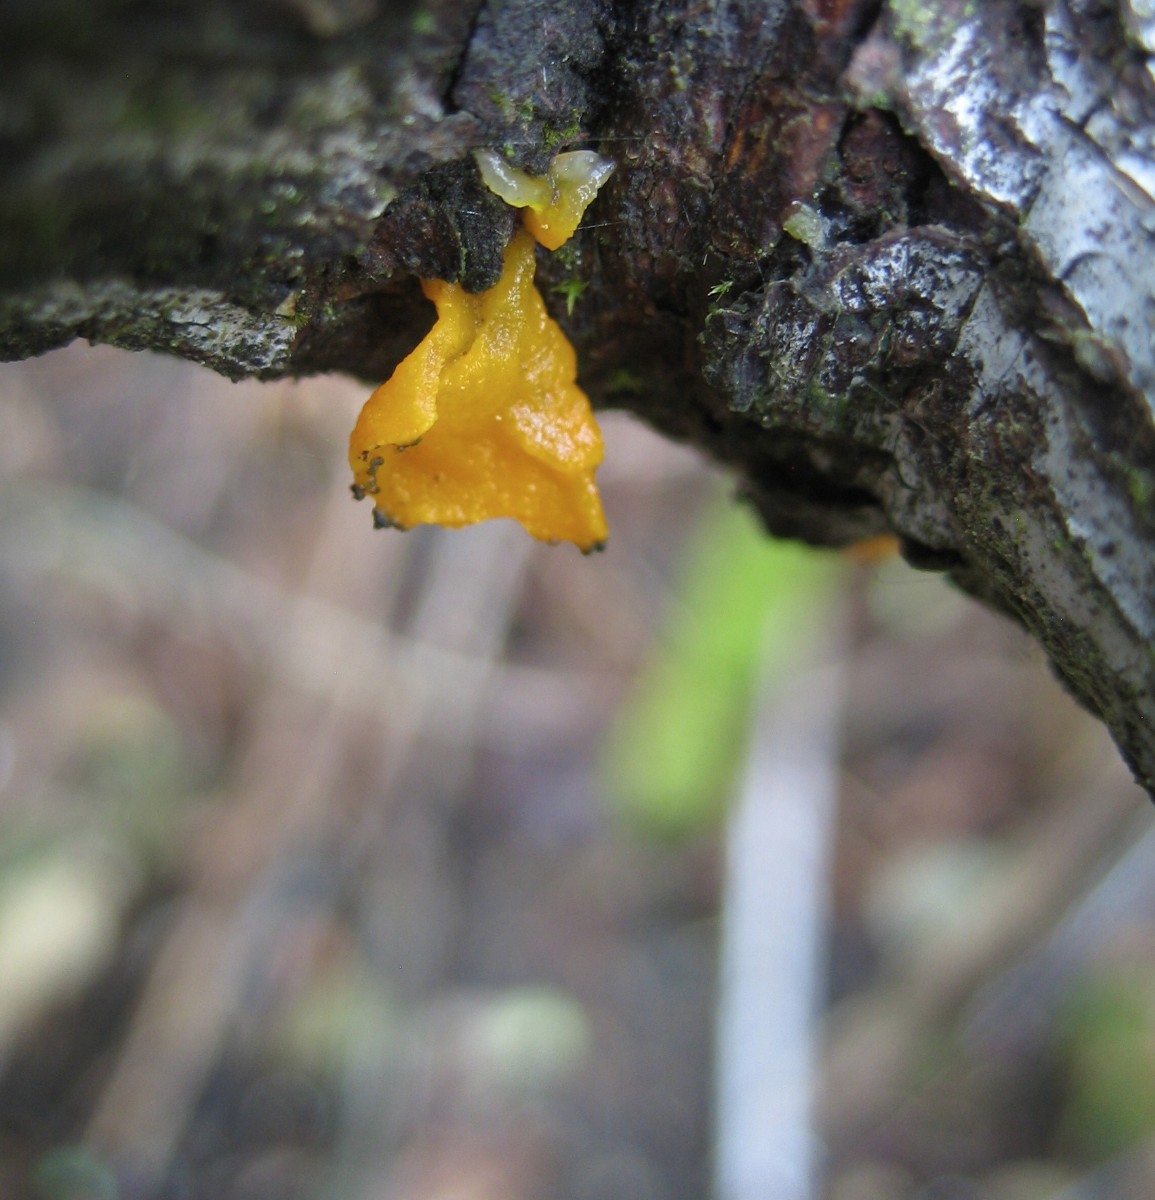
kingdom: Fungi
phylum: Basidiomycota
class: Tremellomycetes
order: Tremellales
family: Tremellaceae
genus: Tremella
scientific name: Tremella mesenterica
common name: gul bævresvamp
